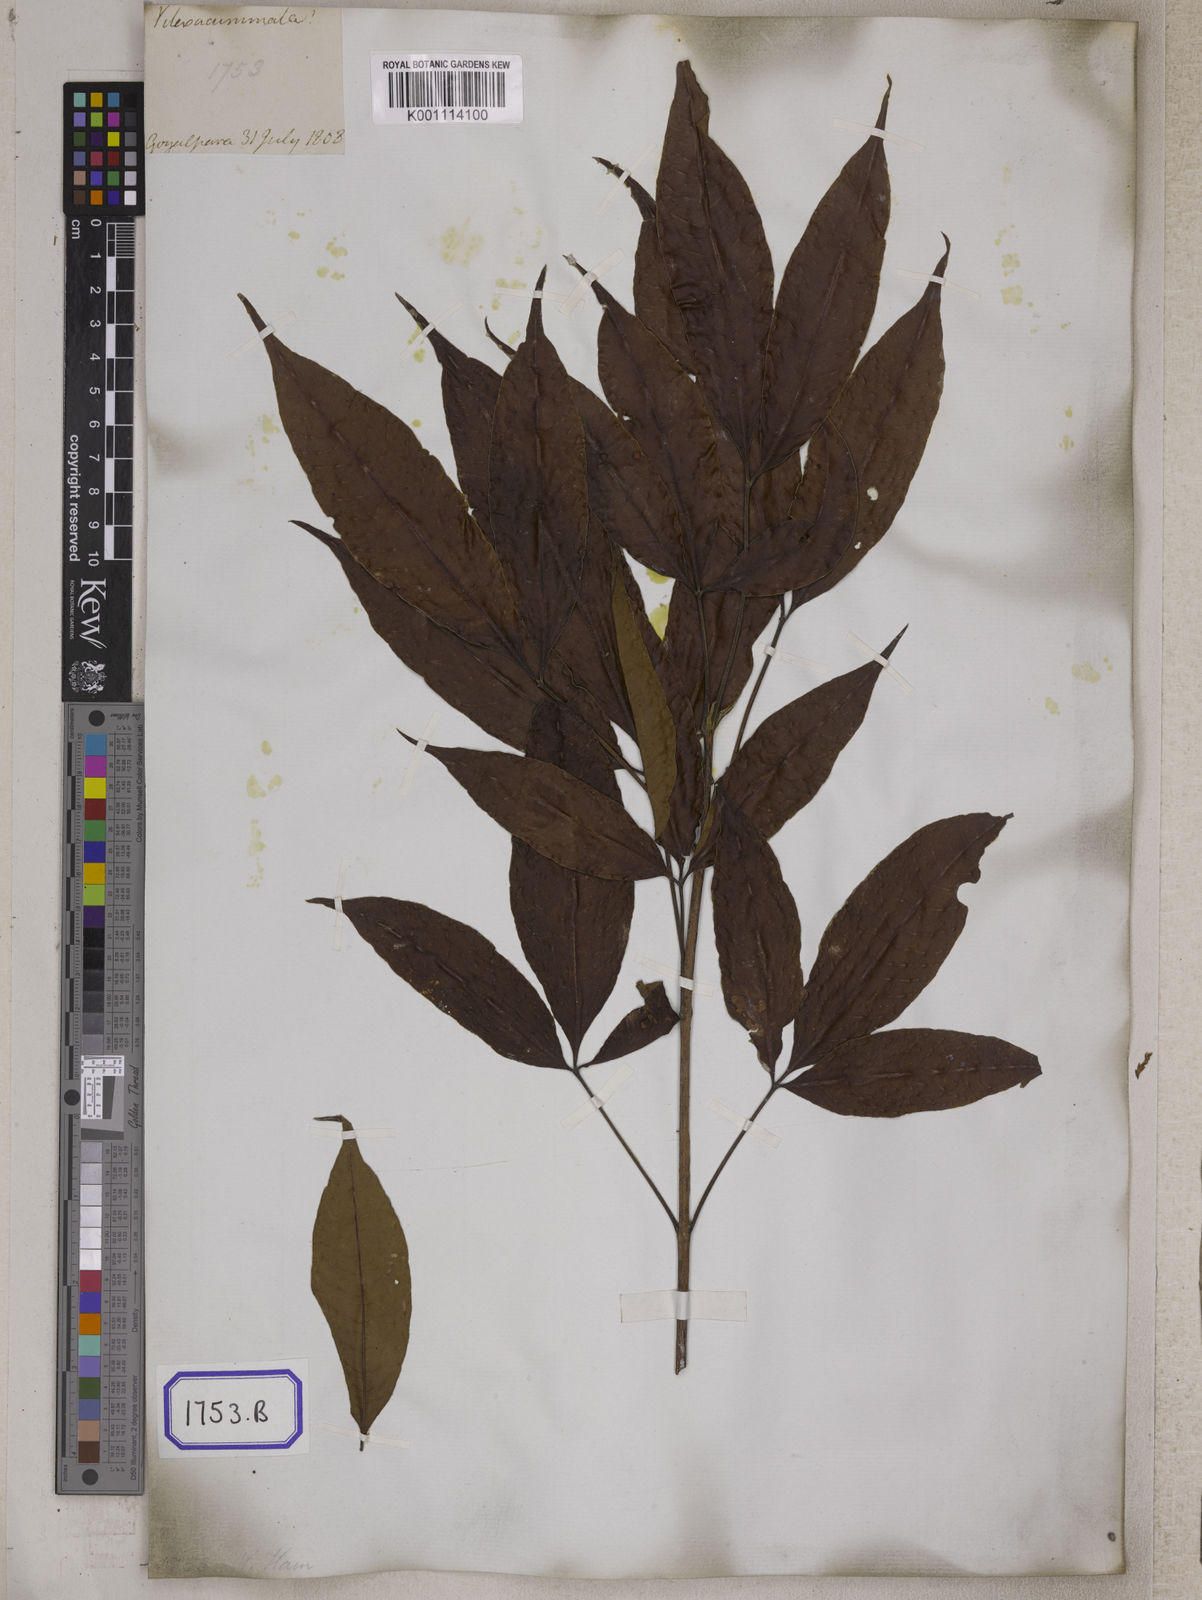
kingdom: Plantae
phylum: Tracheophyta
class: Magnoliopsida
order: Lamiales
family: Lamiaceae
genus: Vitex
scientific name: Vitex
